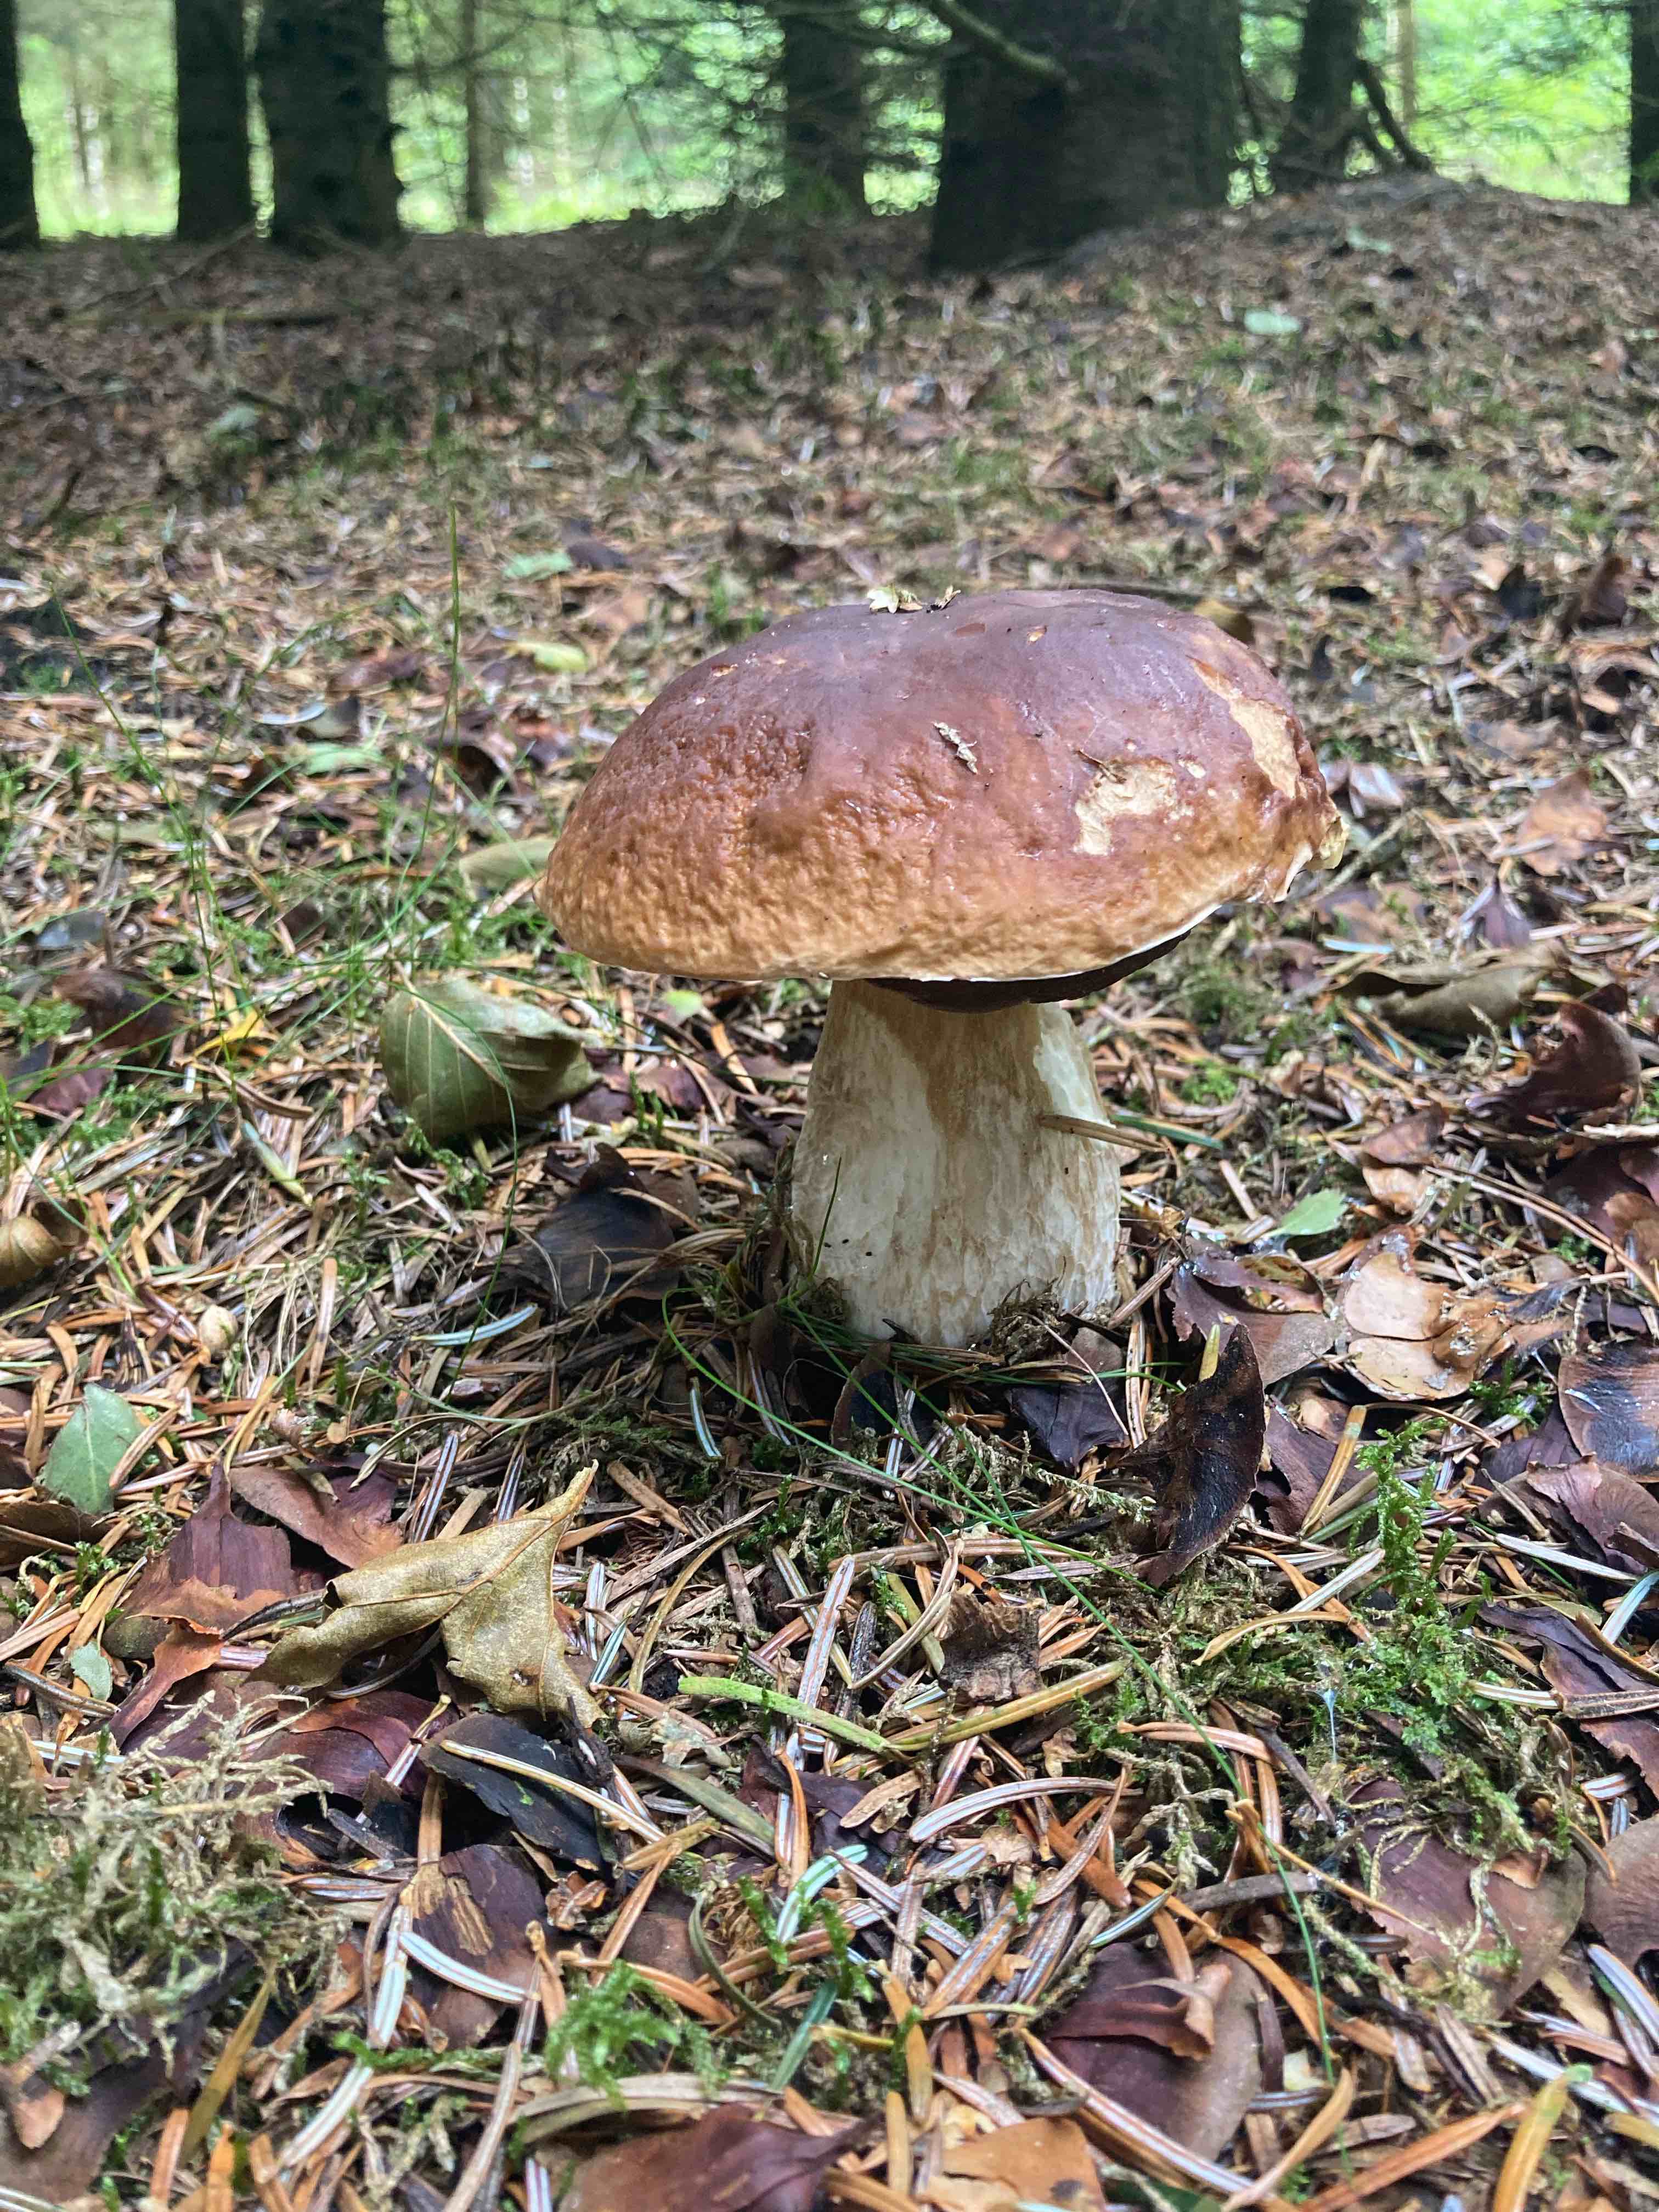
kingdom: Fungi
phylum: Basidiomycota
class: Agaricomycetes
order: Boletales
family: Boletaceae
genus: Boletus
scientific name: Boletus edulis
